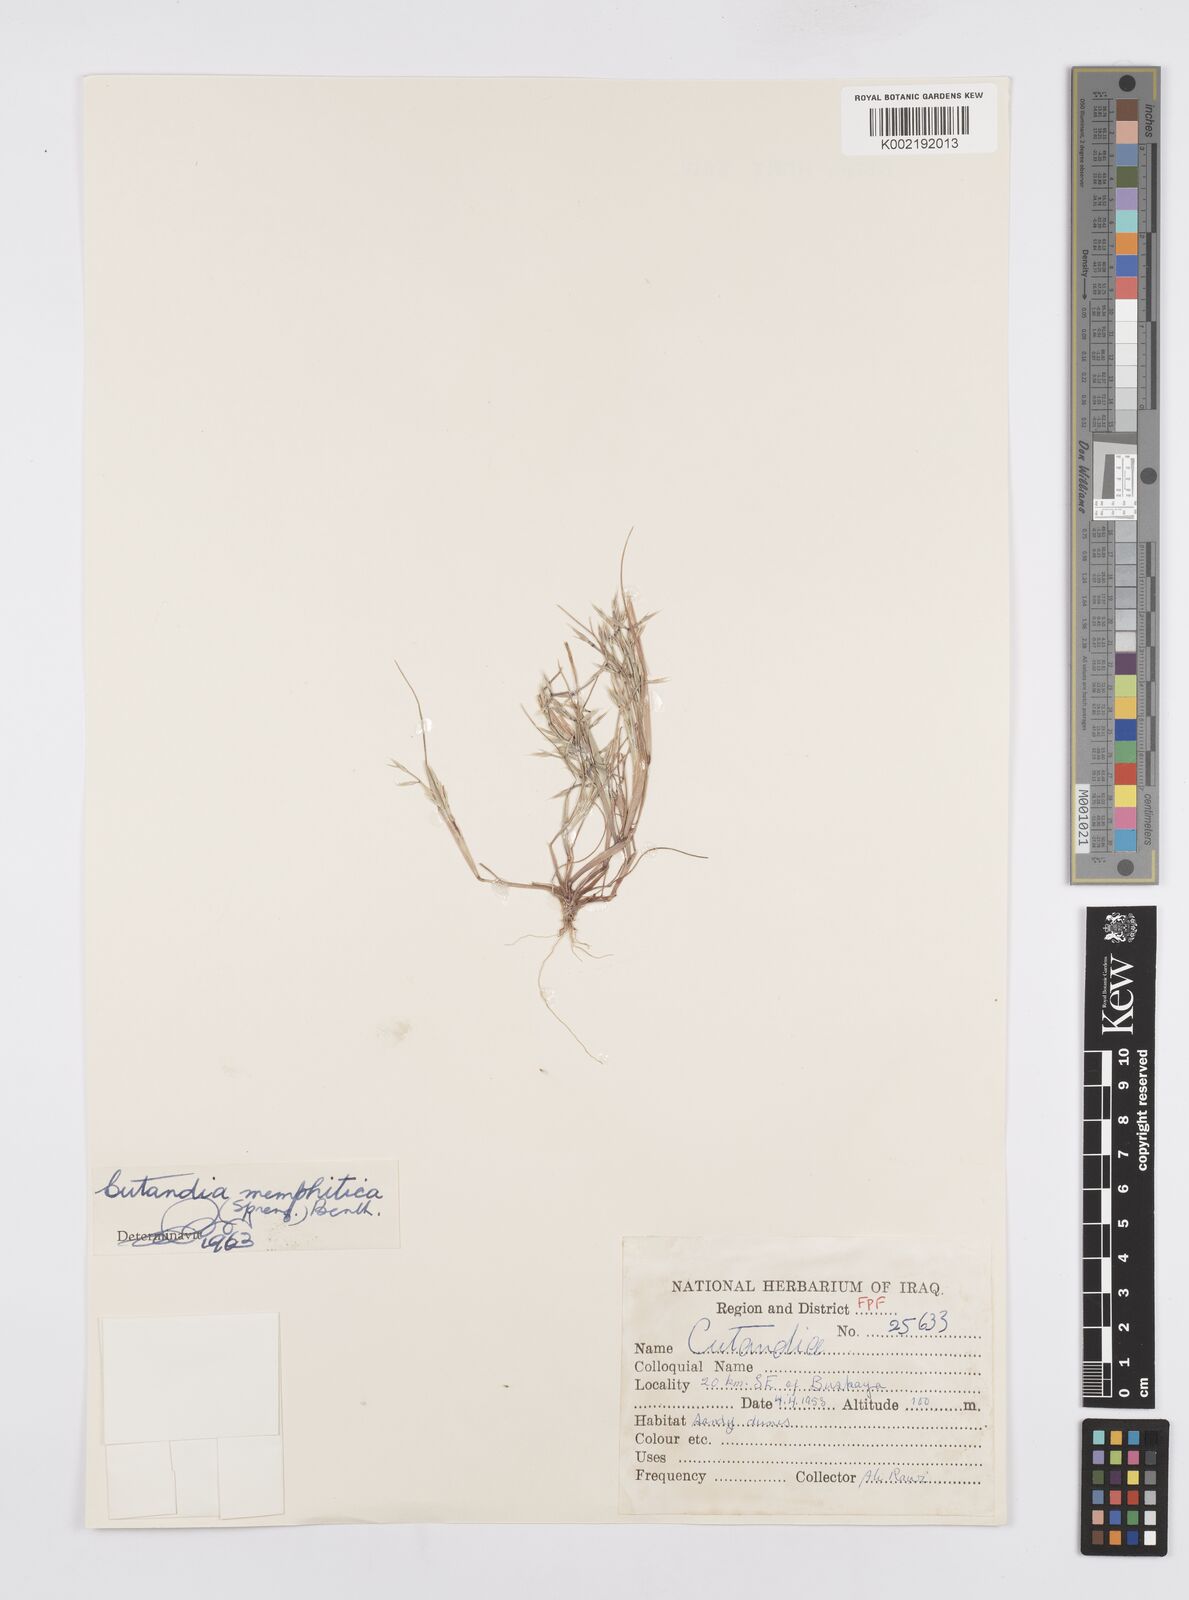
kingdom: Plantae
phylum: Tracheophyta
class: Liliopsida
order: Poales
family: Poaceae
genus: Cutandia
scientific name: Cutandia memphitica
